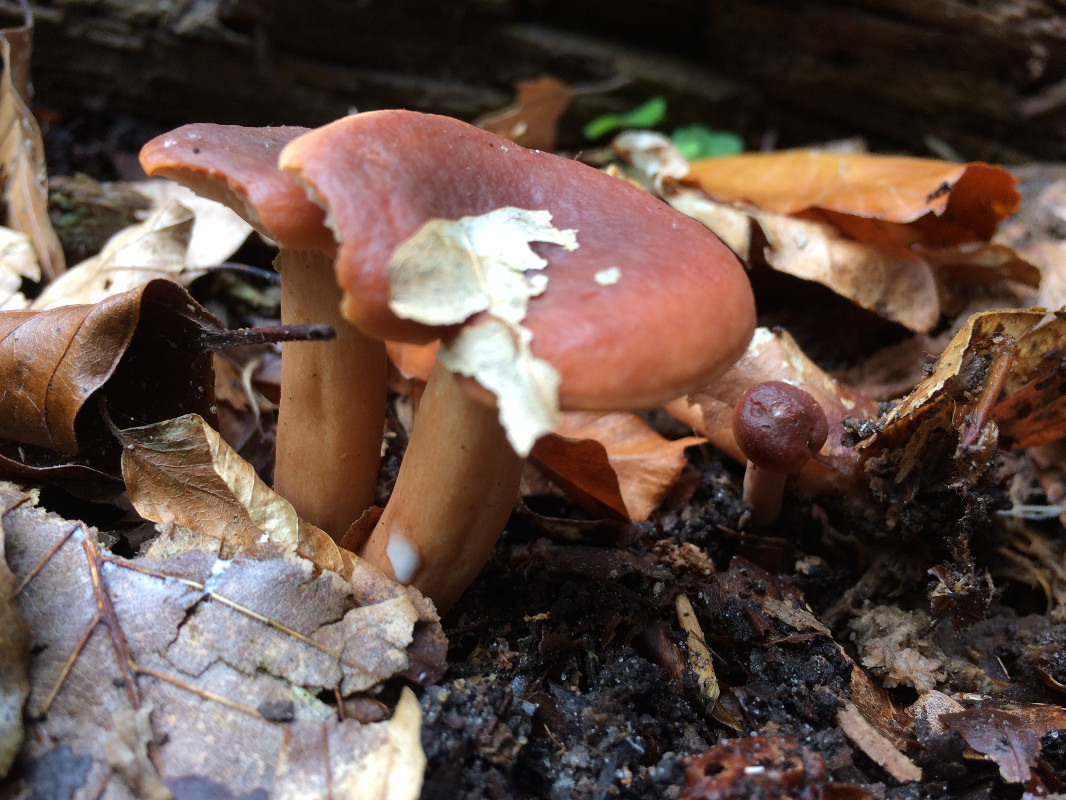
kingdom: Fungi
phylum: Basidiomycota
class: Agaricomycetes
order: Russulales
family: Russulaceae
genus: Lactarius
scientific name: Lactarius subdulcis
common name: sødlig mælkehat
